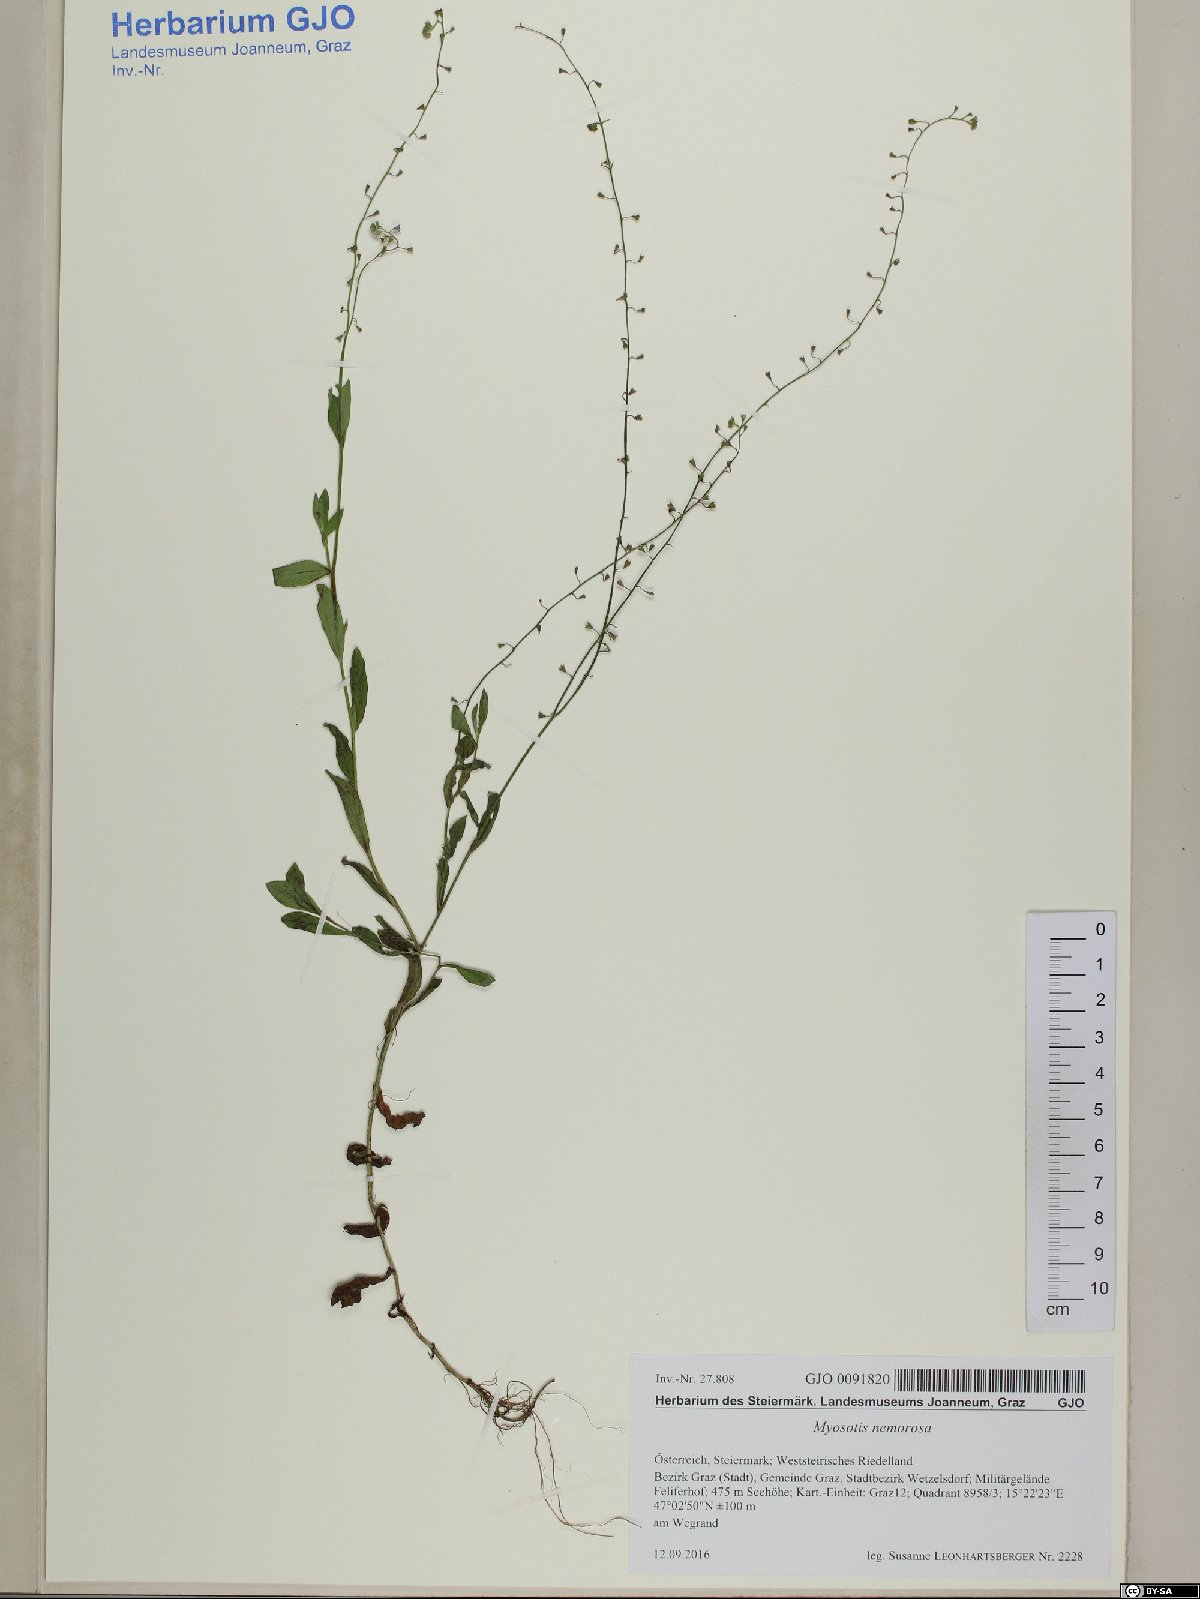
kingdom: Plantae
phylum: Tracheophyta
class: Magnoliopsida
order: Boraginales
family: Boraginaceae
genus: Myosotis
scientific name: Myosotis nemorosa
